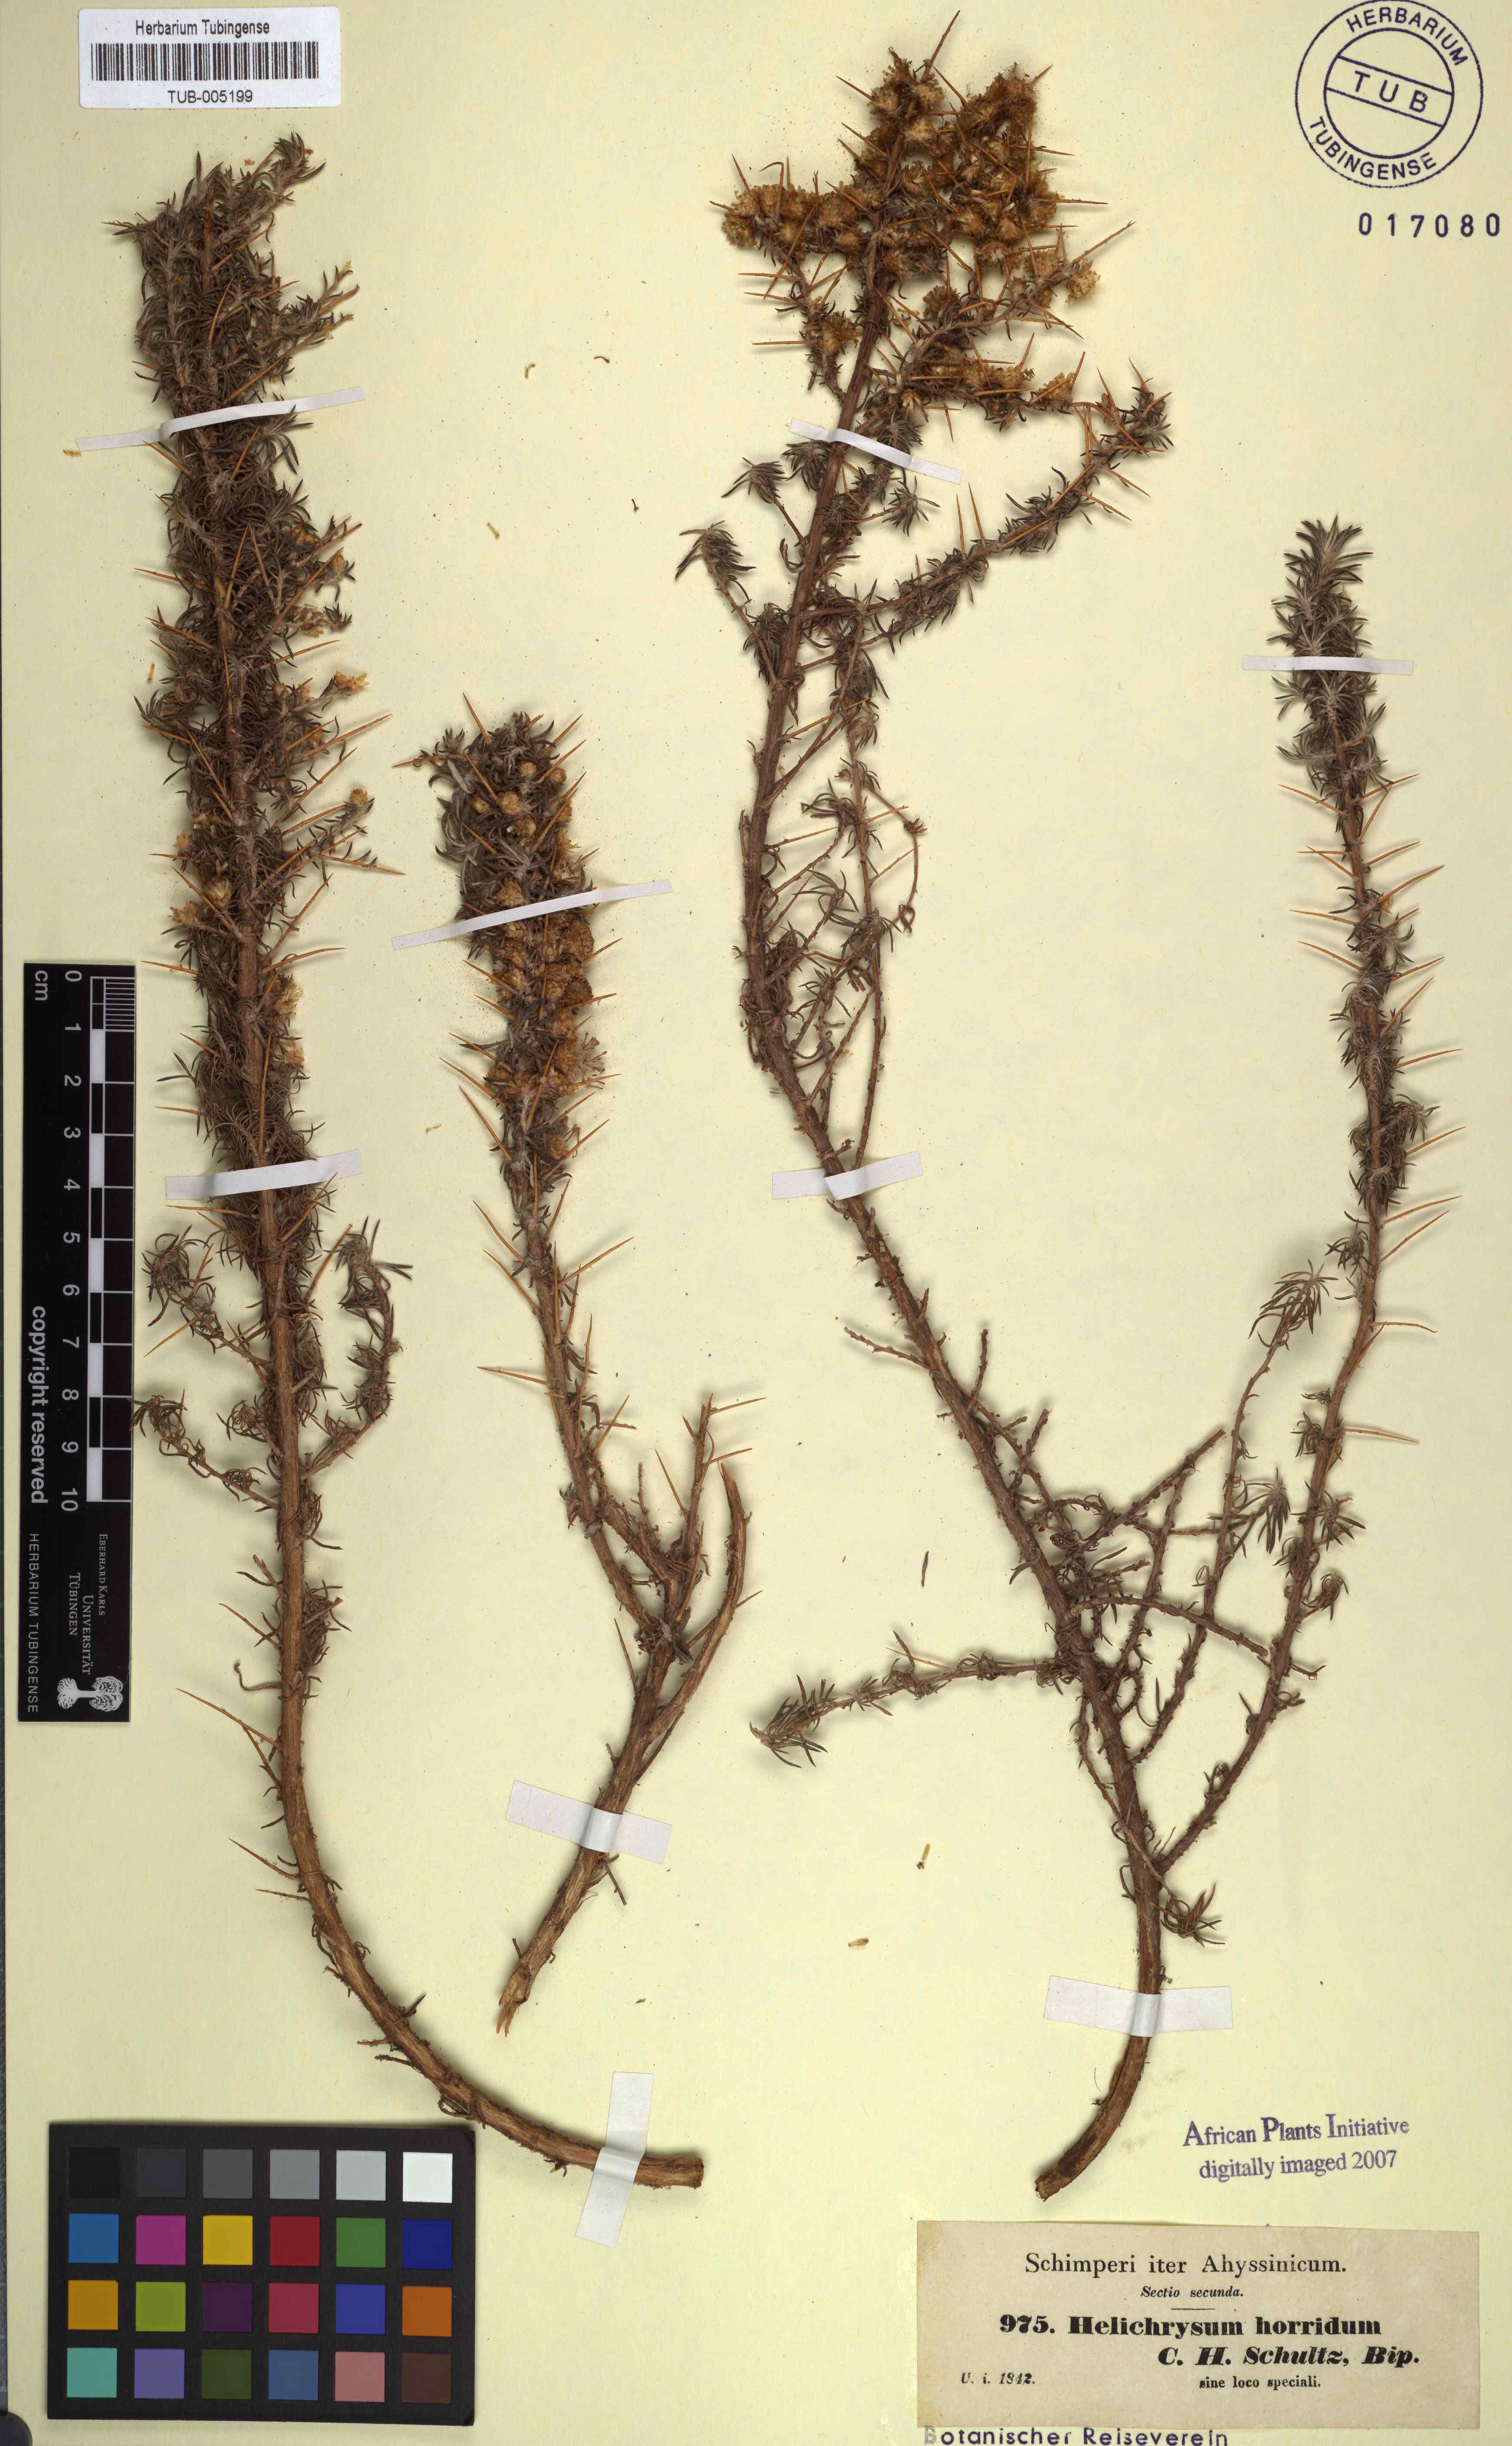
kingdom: Plantae
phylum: Tracheophyta
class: Magnoliopsida
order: Asterales
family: Asteraceae
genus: Helichrysum
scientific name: Helichrysum horridum
